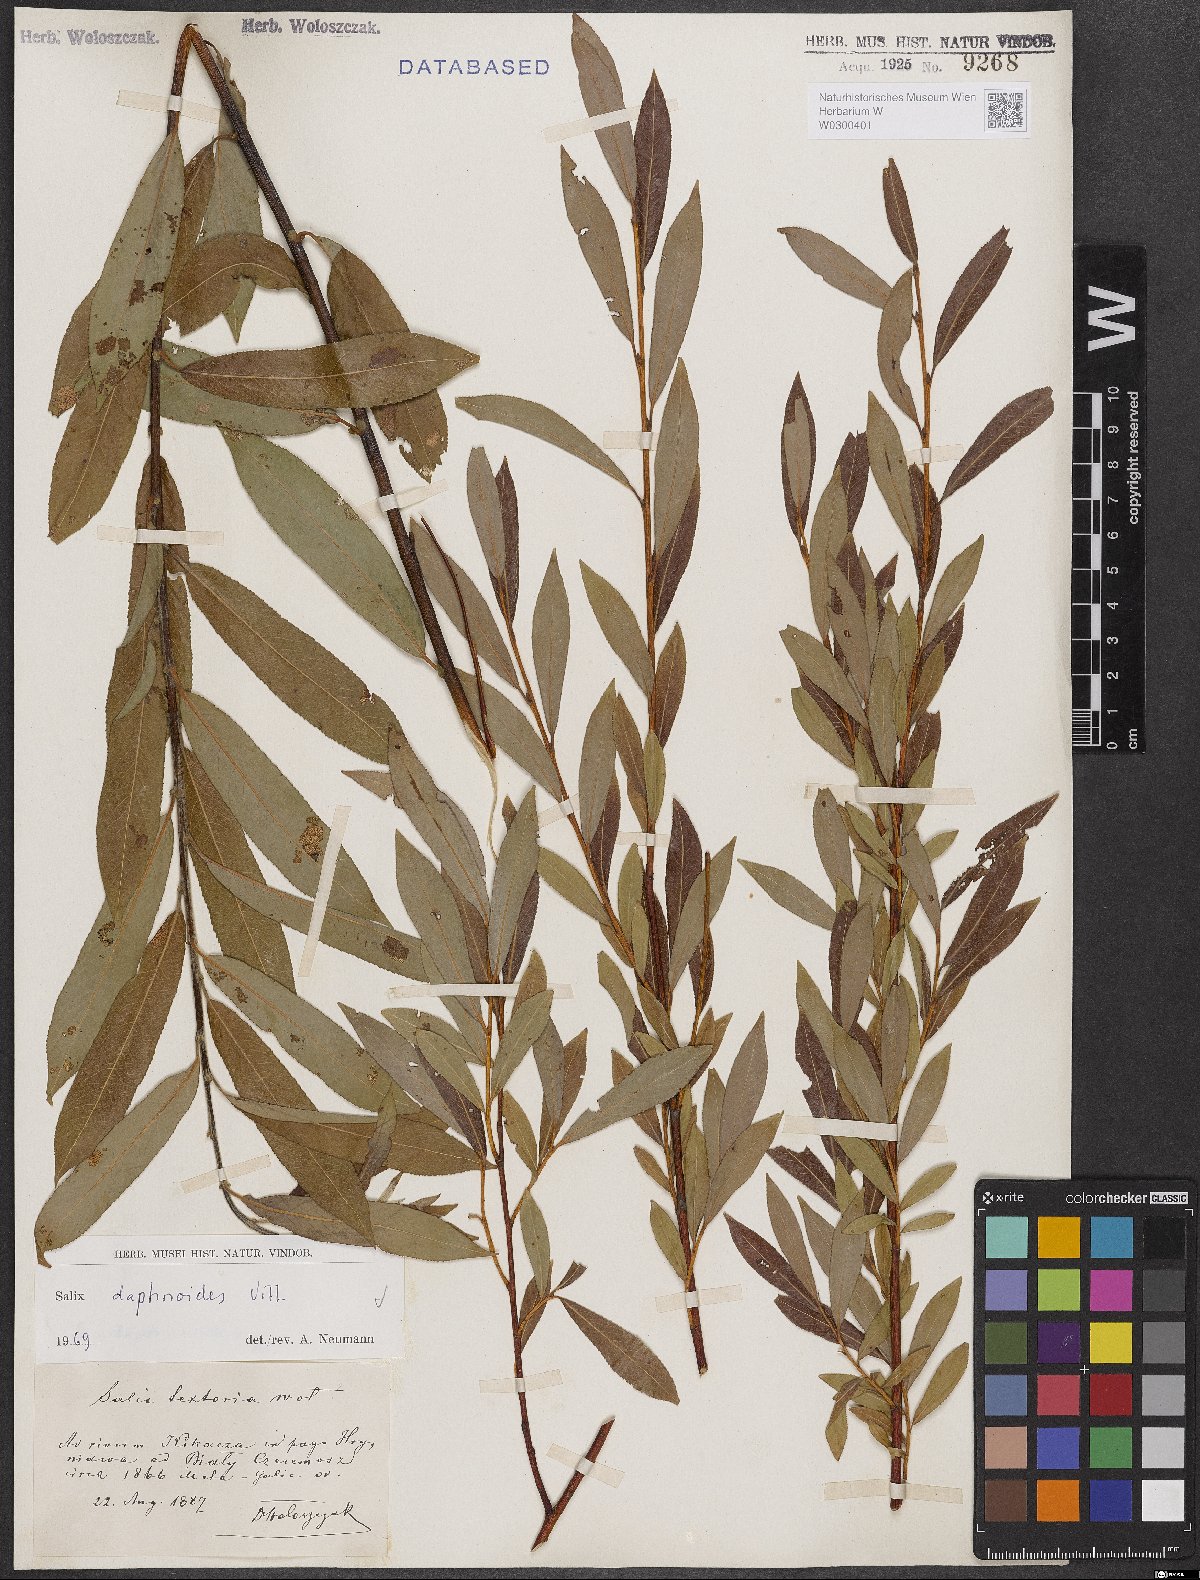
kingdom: Plantae
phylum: Tracheophyta
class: Magnoliopsida
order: Malpighiales
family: Salicaceae
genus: Salix
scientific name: Salix daphnoides
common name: European violet-willow
